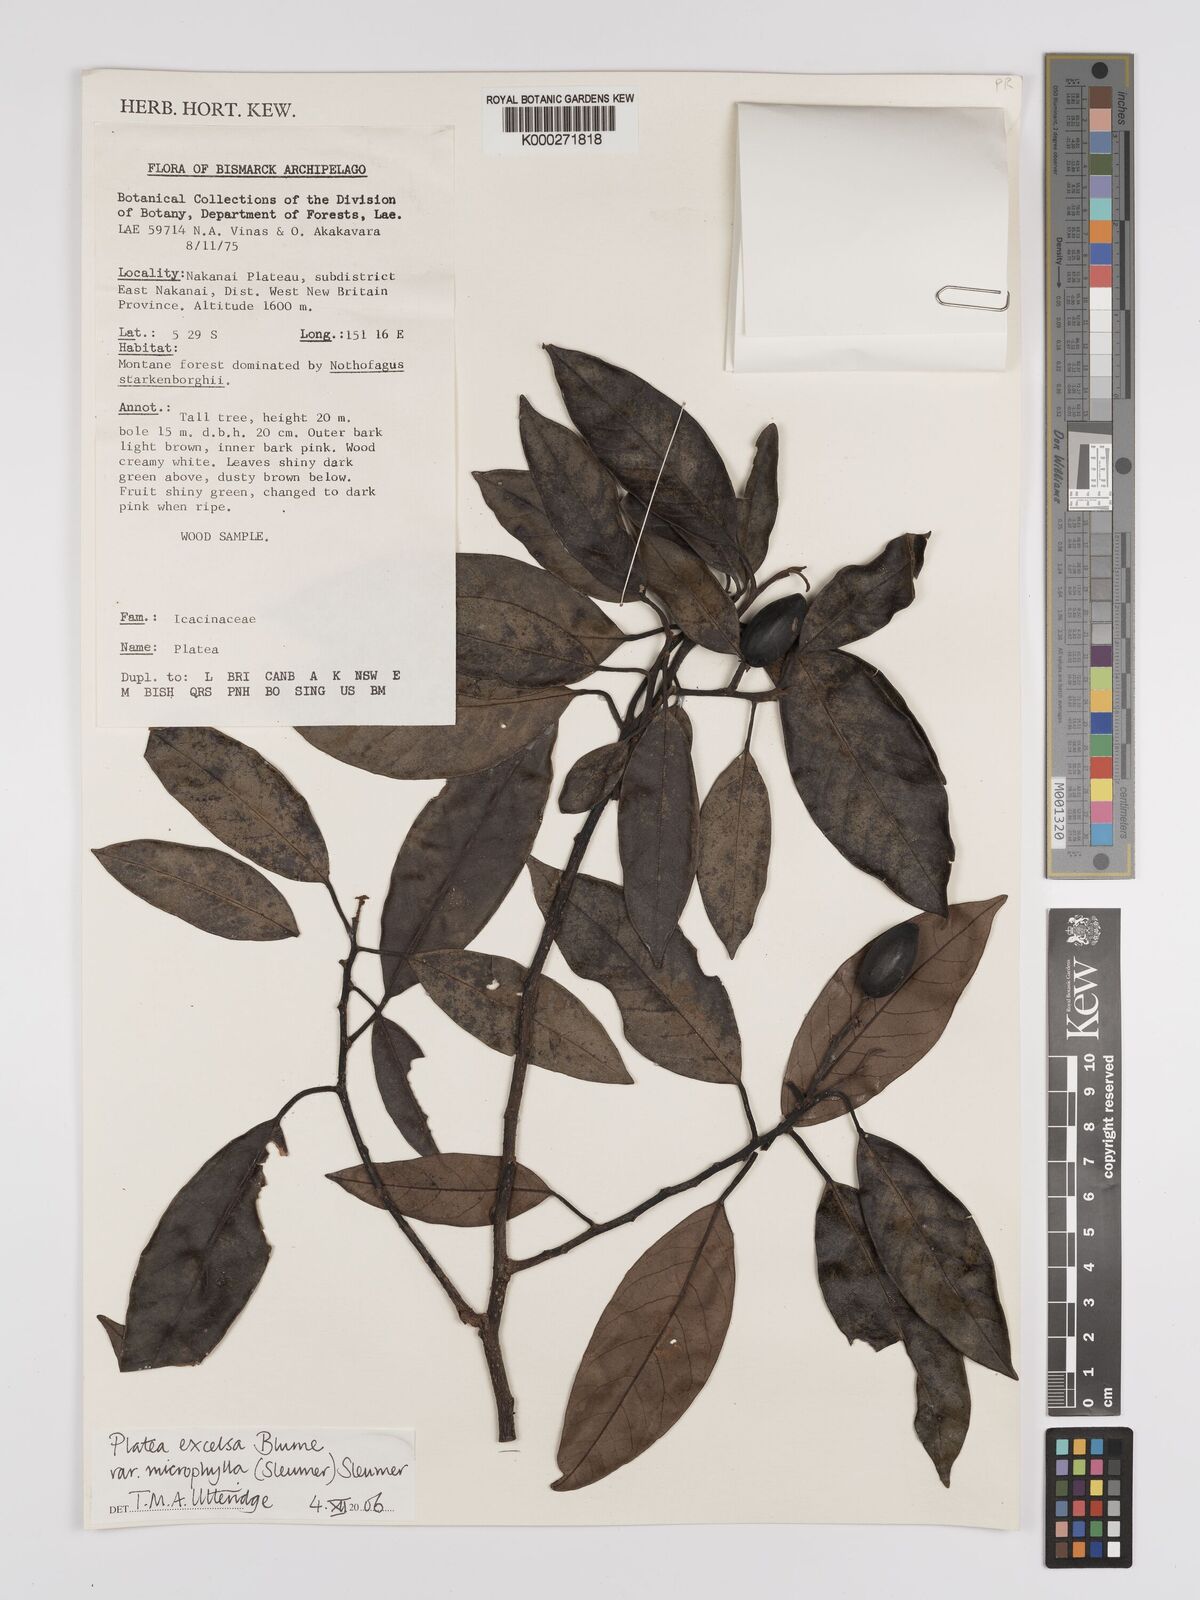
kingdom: Plantae
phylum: Tracheophyta
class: Magnoliopsida
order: Metteniusales
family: Metteniusaceae
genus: Platea
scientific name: Platea excelsa
